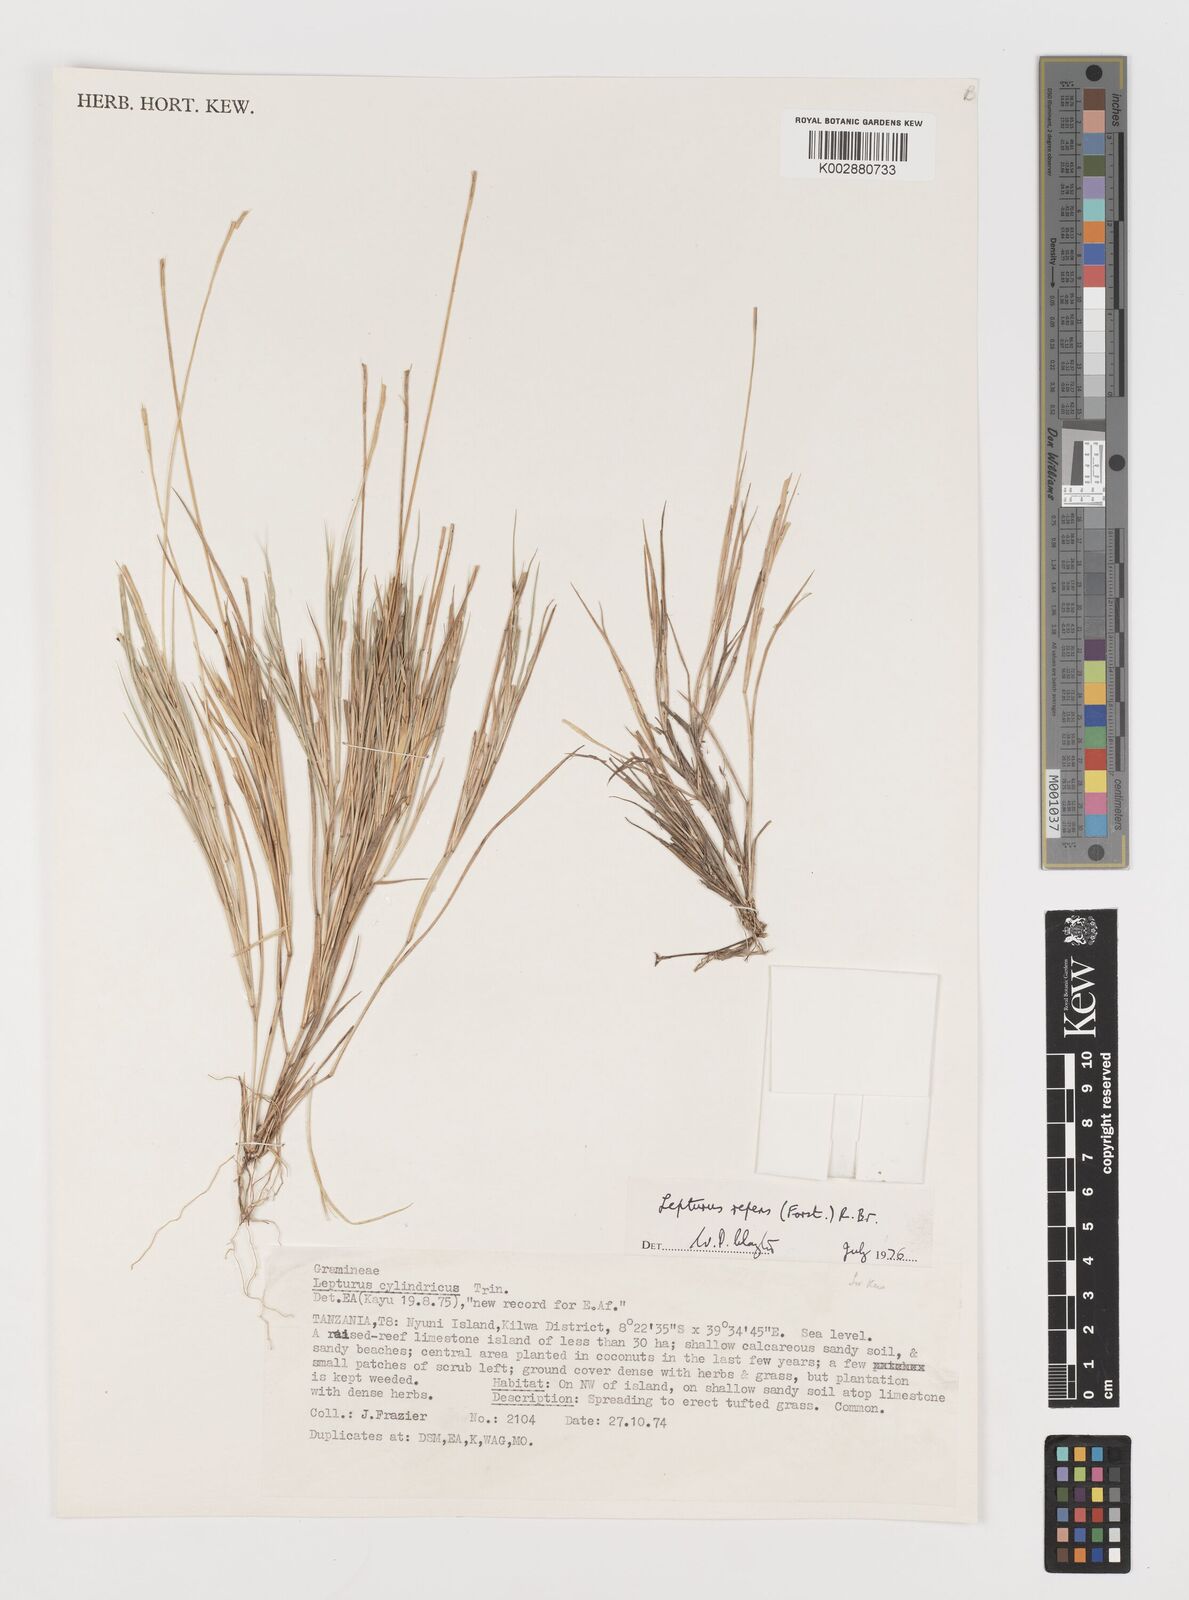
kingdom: Plantae
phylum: Tracheophyta
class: Liliopsida
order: Poales
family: Poaceae
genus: Lepturus
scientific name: Lepturus repens
